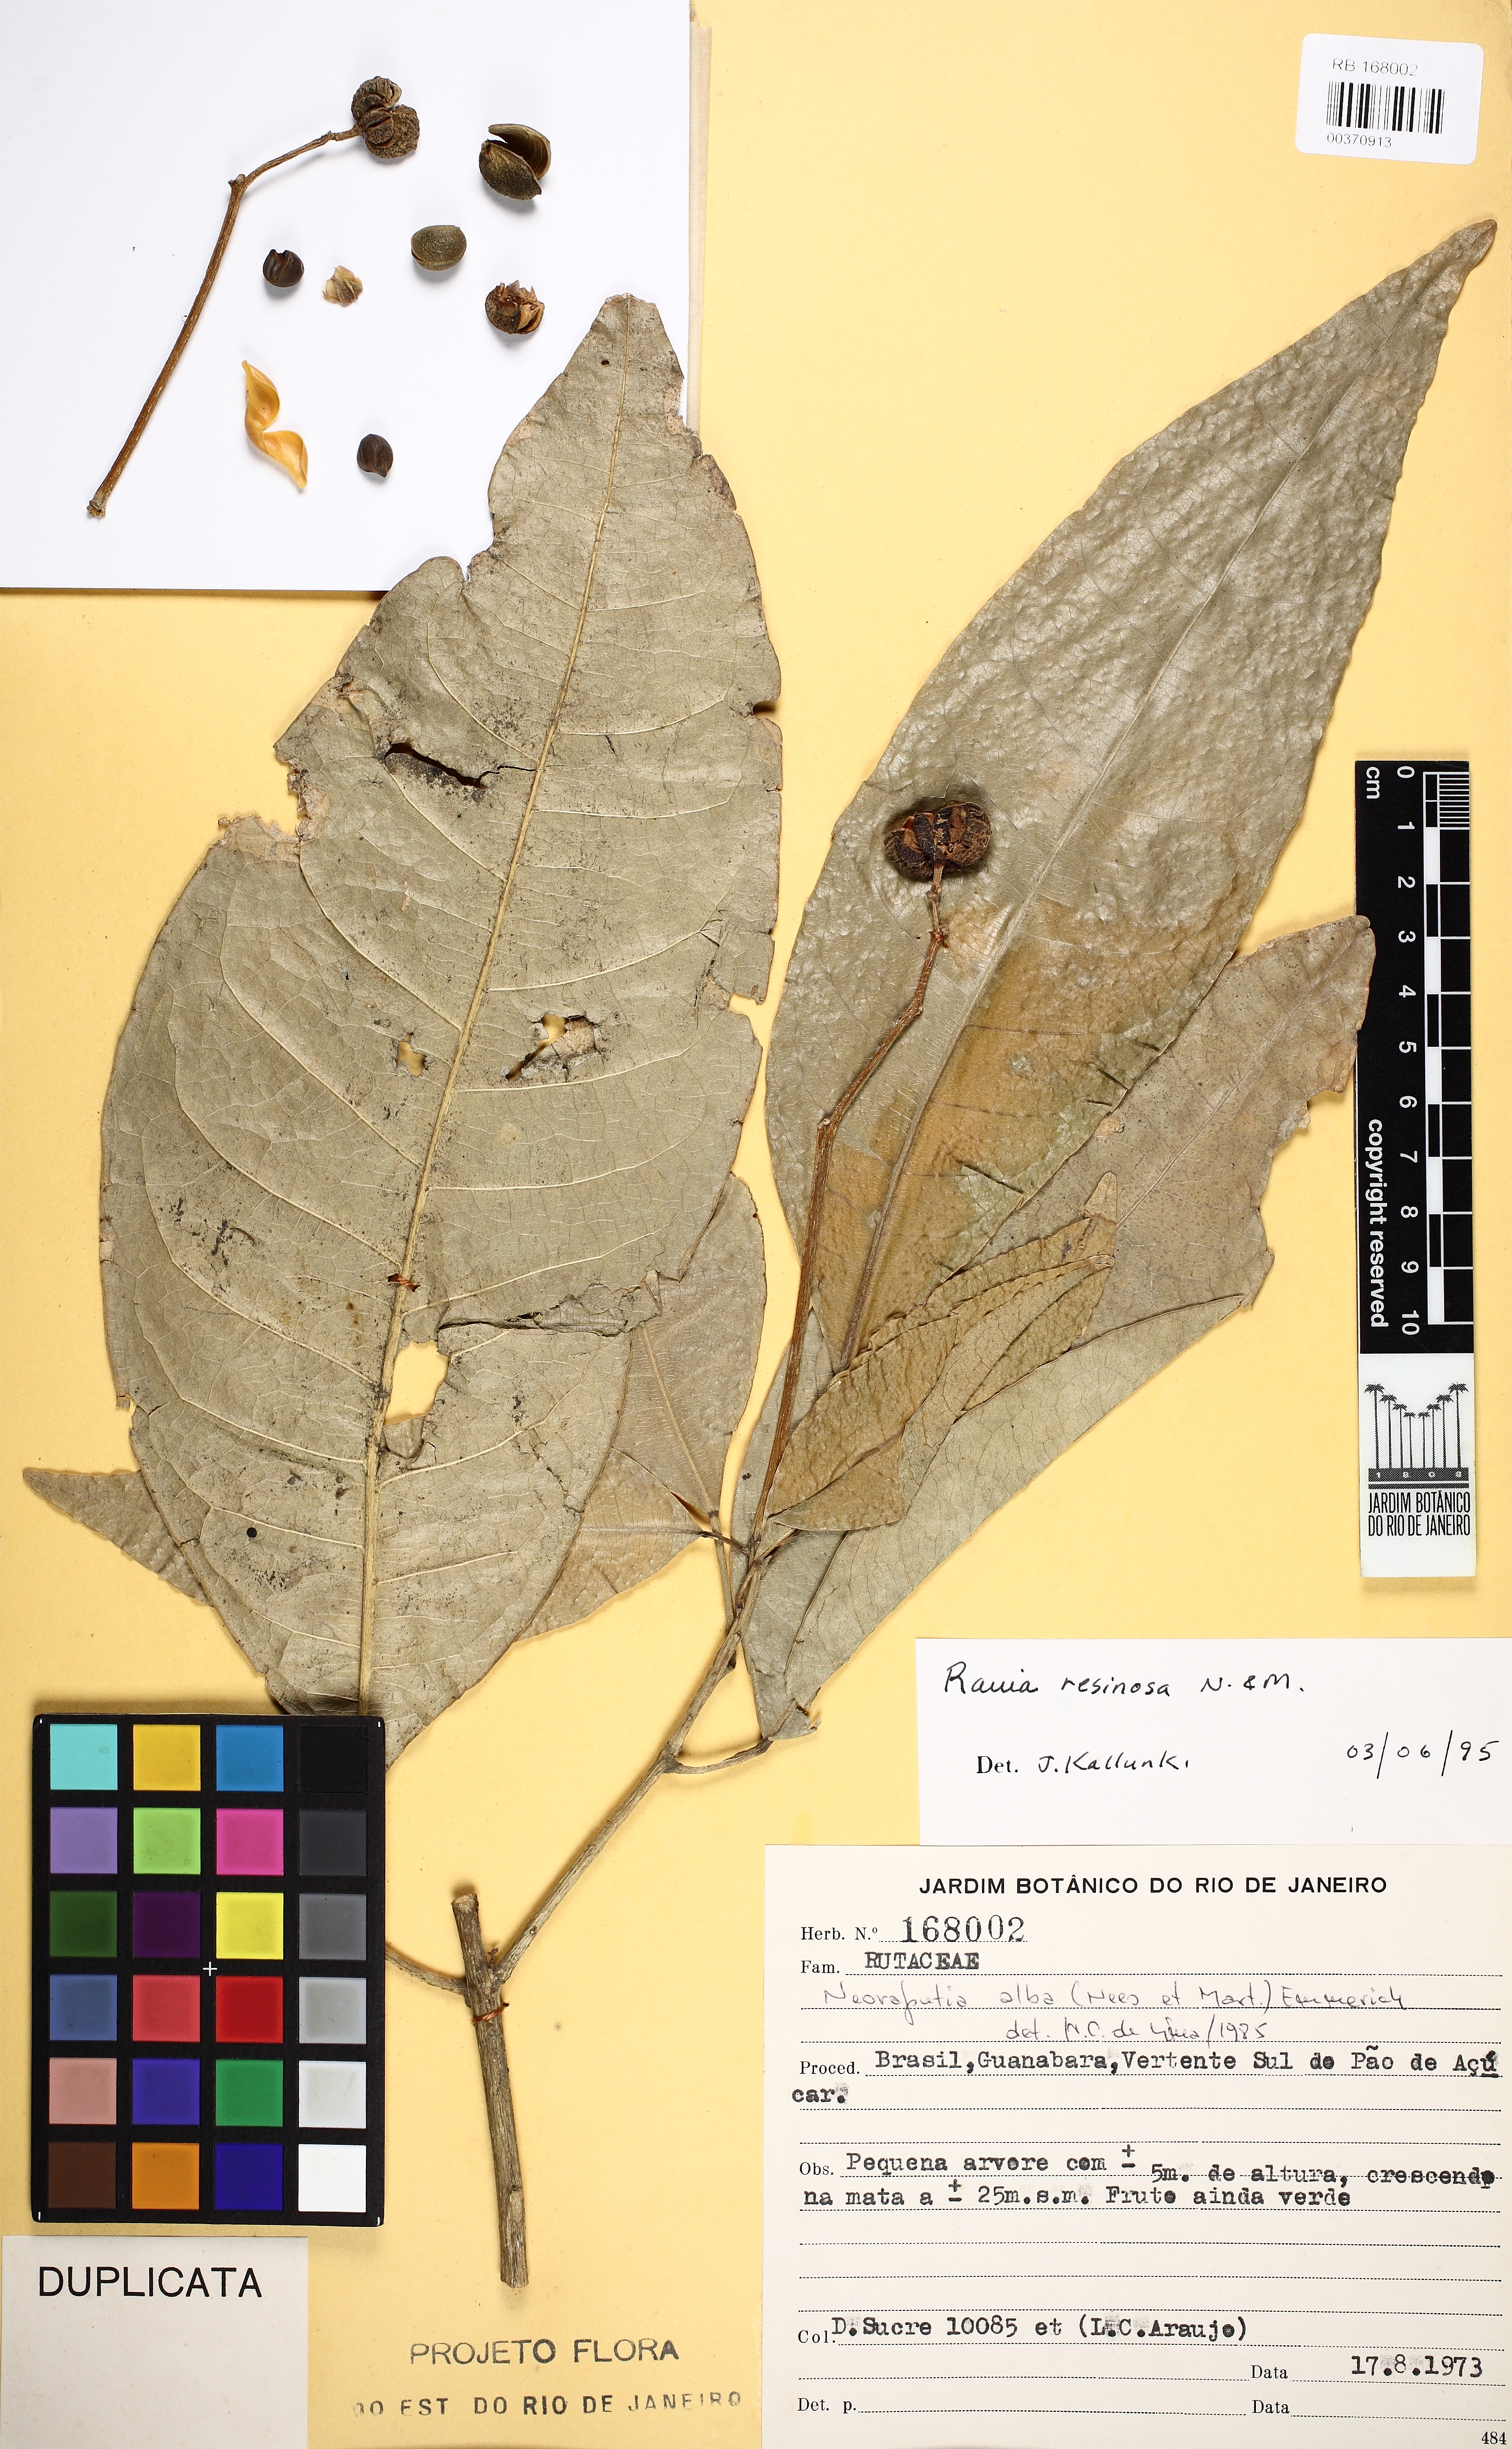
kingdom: Plantae
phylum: Tracheophyta
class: Magnoliopsida
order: Sapindales
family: Rutaceae
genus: Rauia
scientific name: Rauia resinosa
